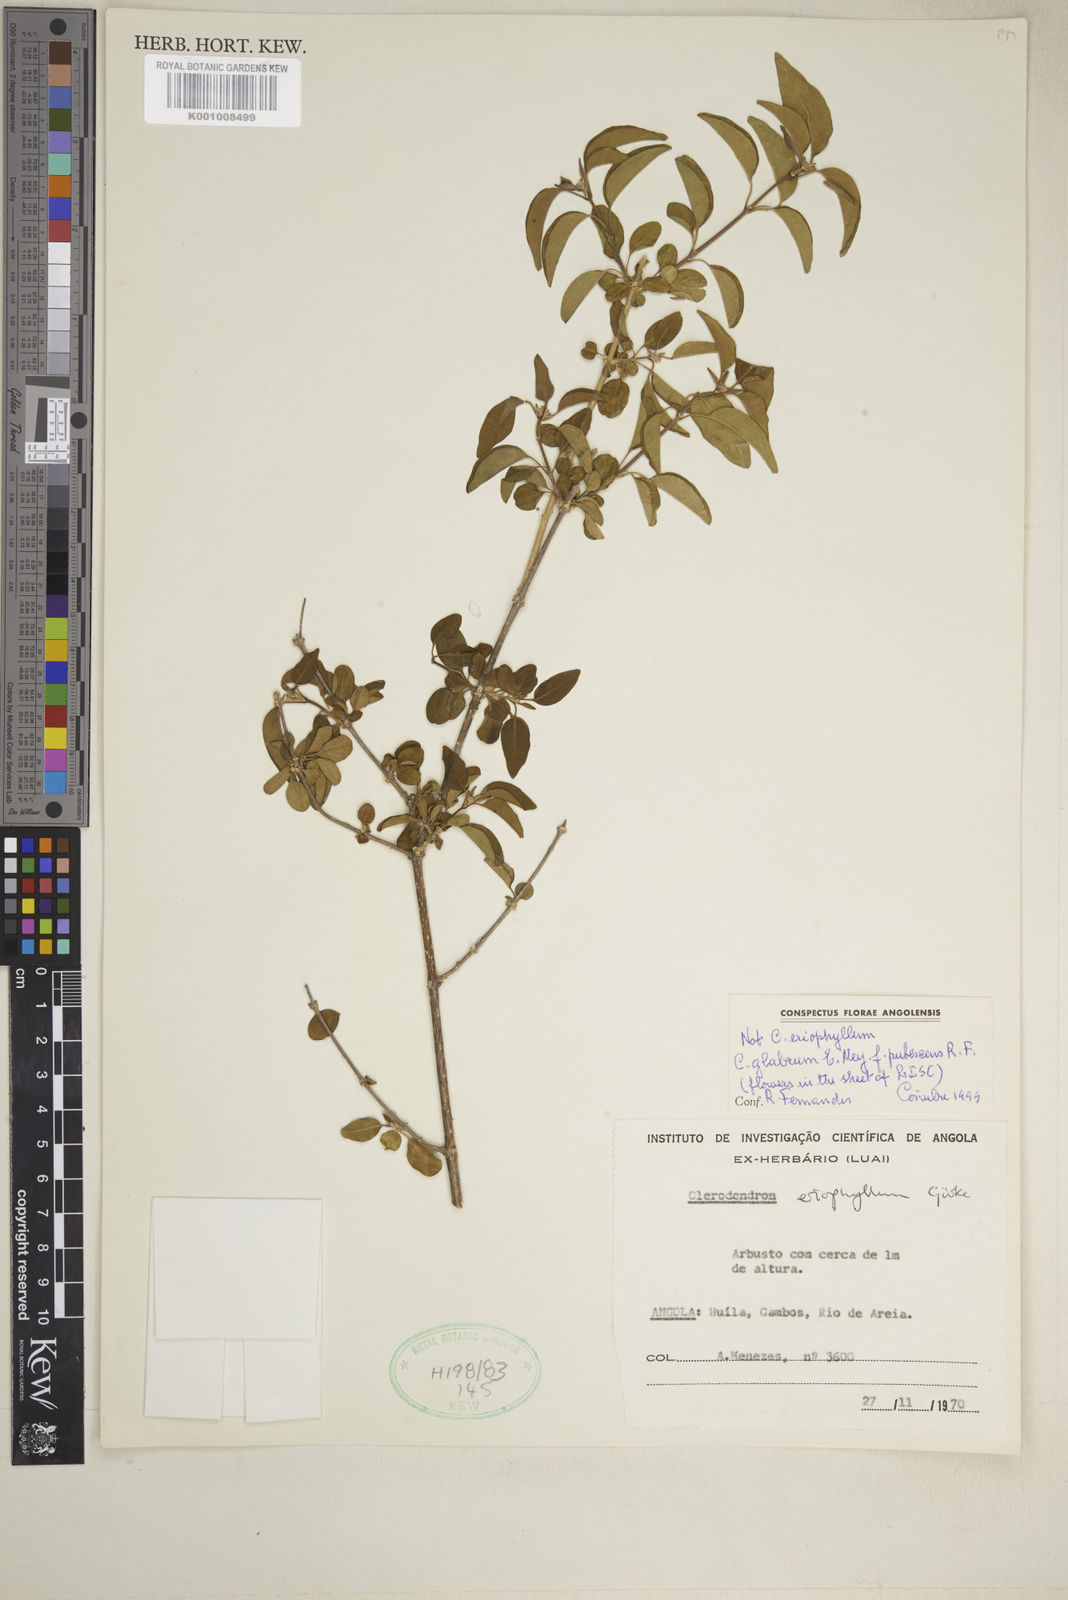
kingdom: Plantae
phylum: Tracheophyta
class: Magnoliopsida
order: Lamiales
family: Lamiaceae
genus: Volkameria
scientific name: Volkameria glabra
